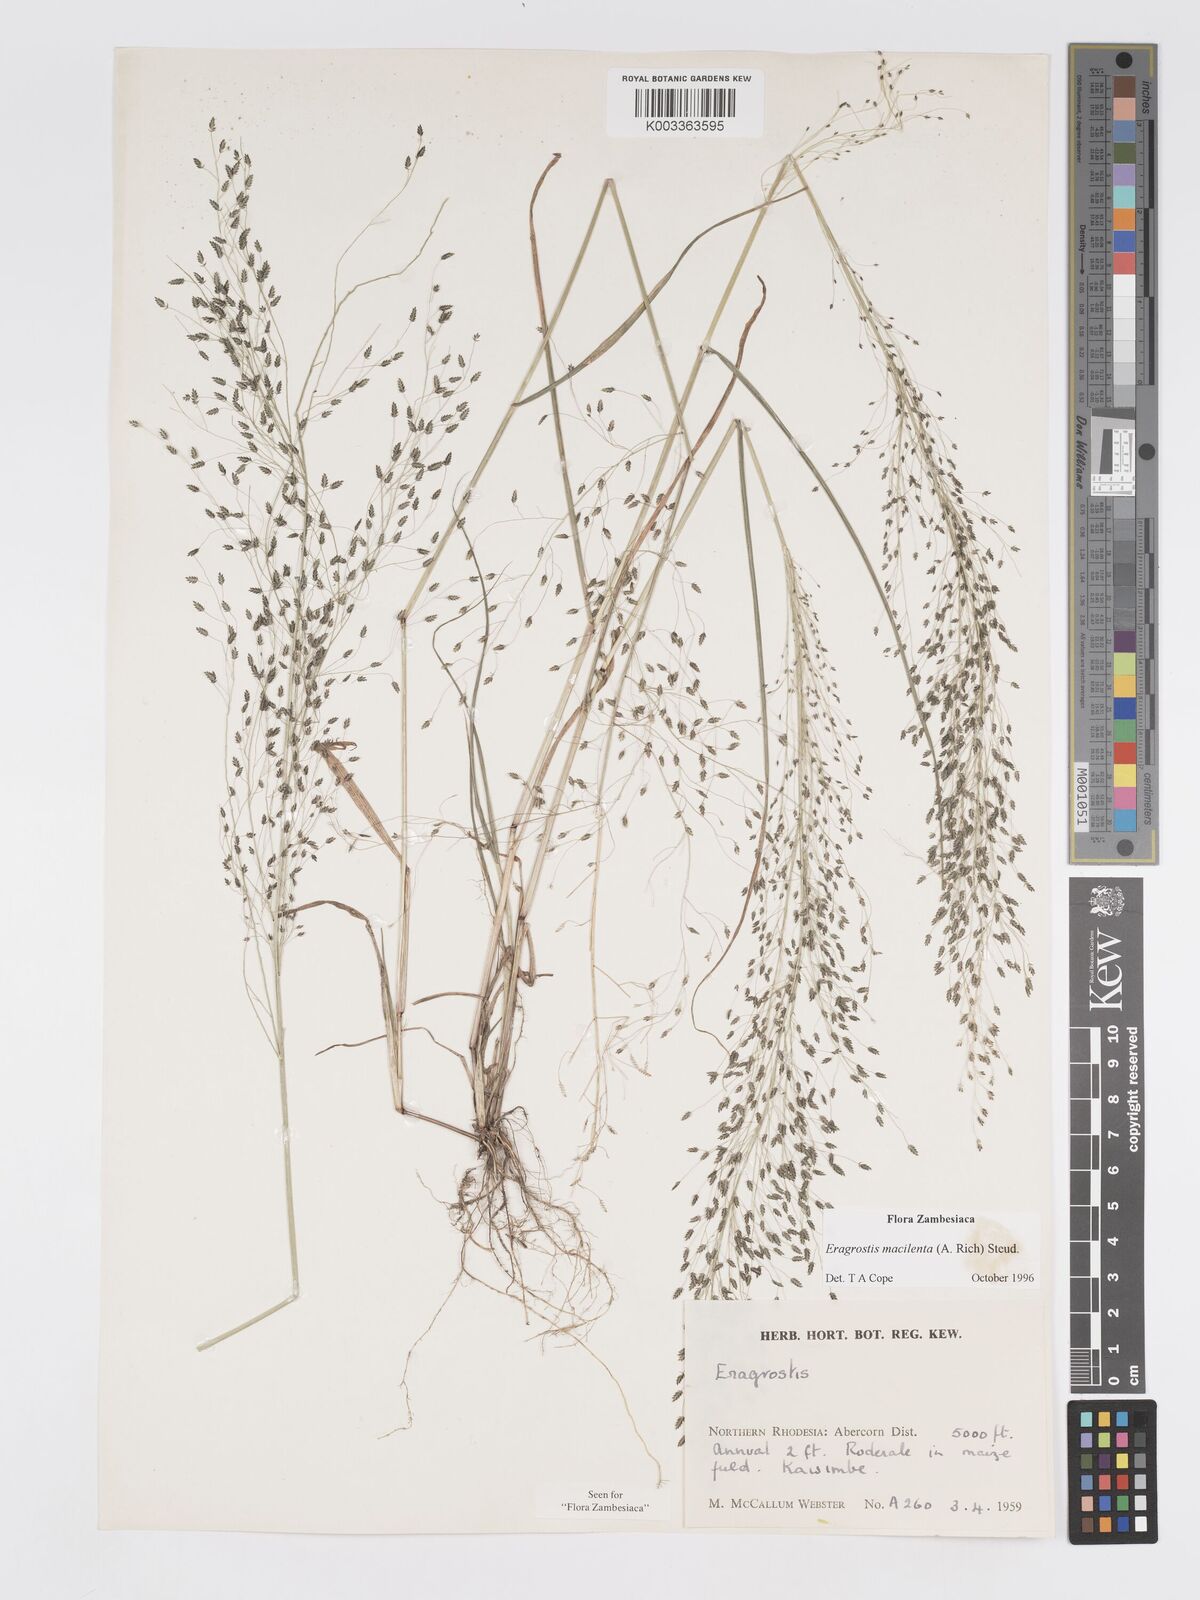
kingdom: Plantae
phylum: Tracheophyta
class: Liliopsida
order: Poales
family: Poaceae
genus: Eragrostis
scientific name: Eragrostis macilenta
